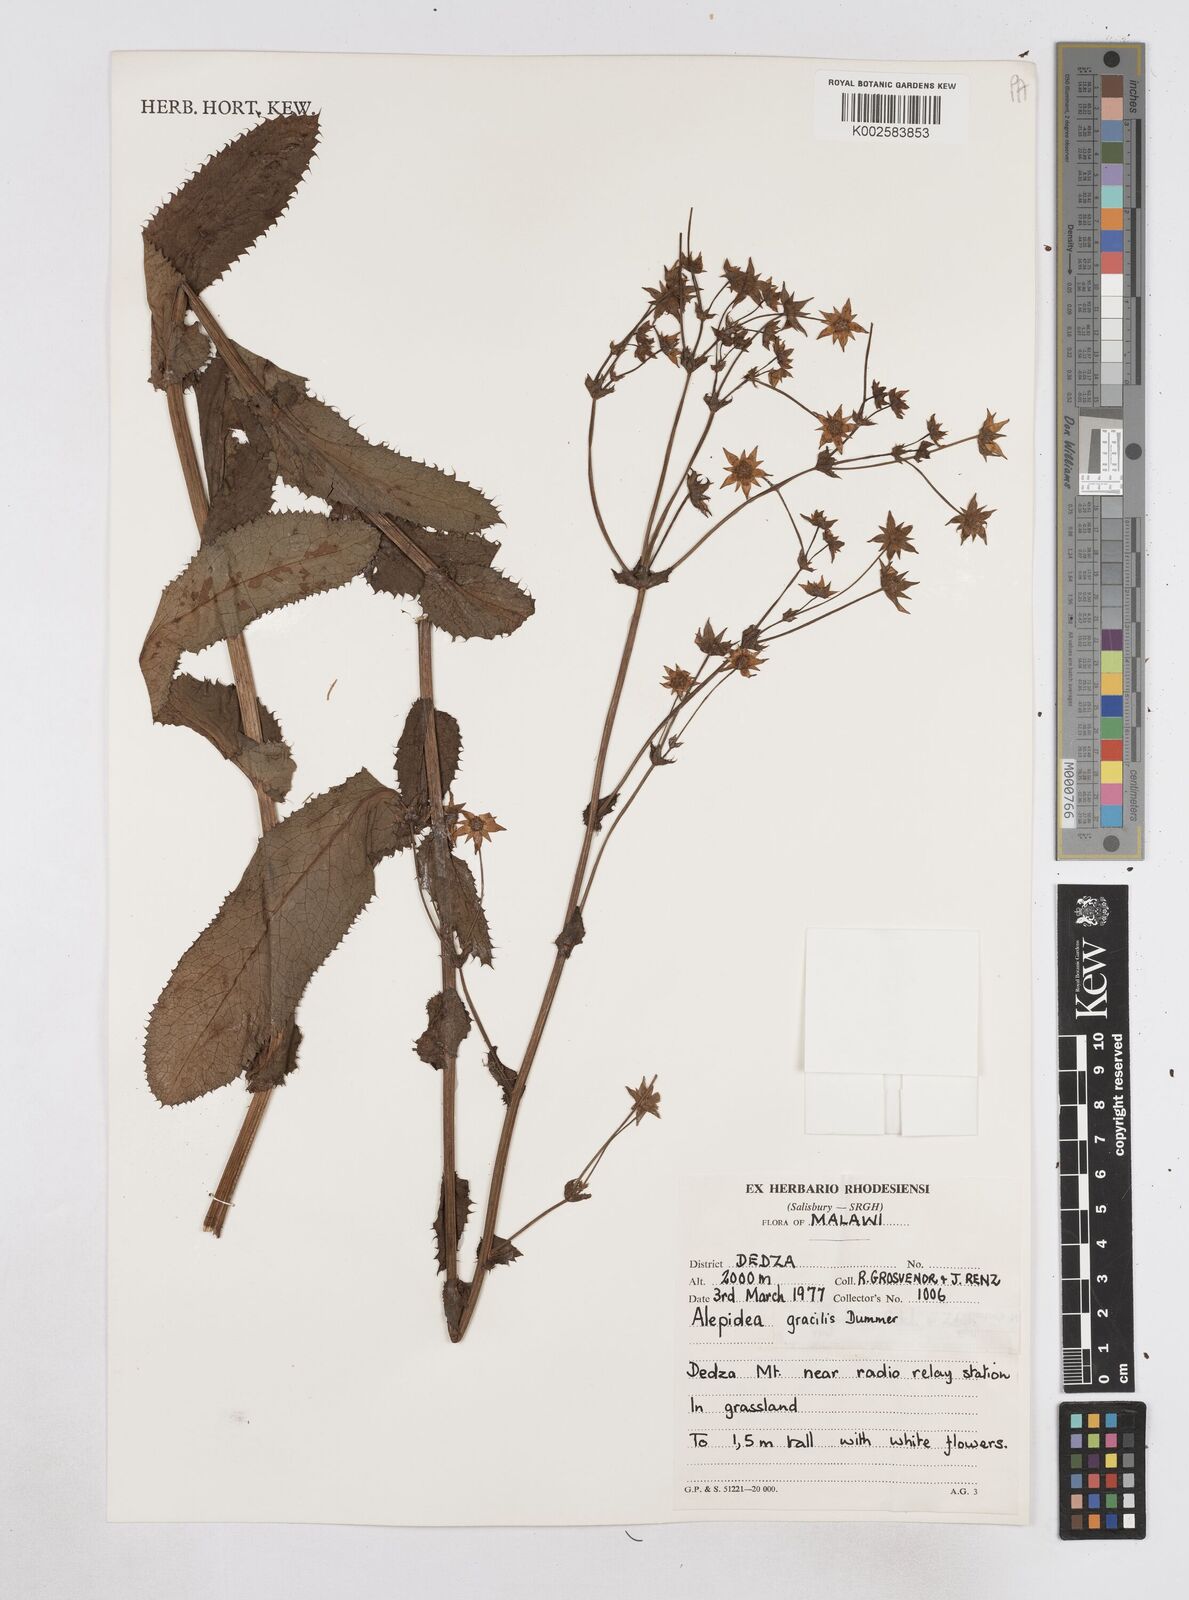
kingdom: Plantae
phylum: Tracheophyta
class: Magnoliopsida
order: Apiales
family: Apiaceae
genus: Alepidea
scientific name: Alepidea peduncularis
